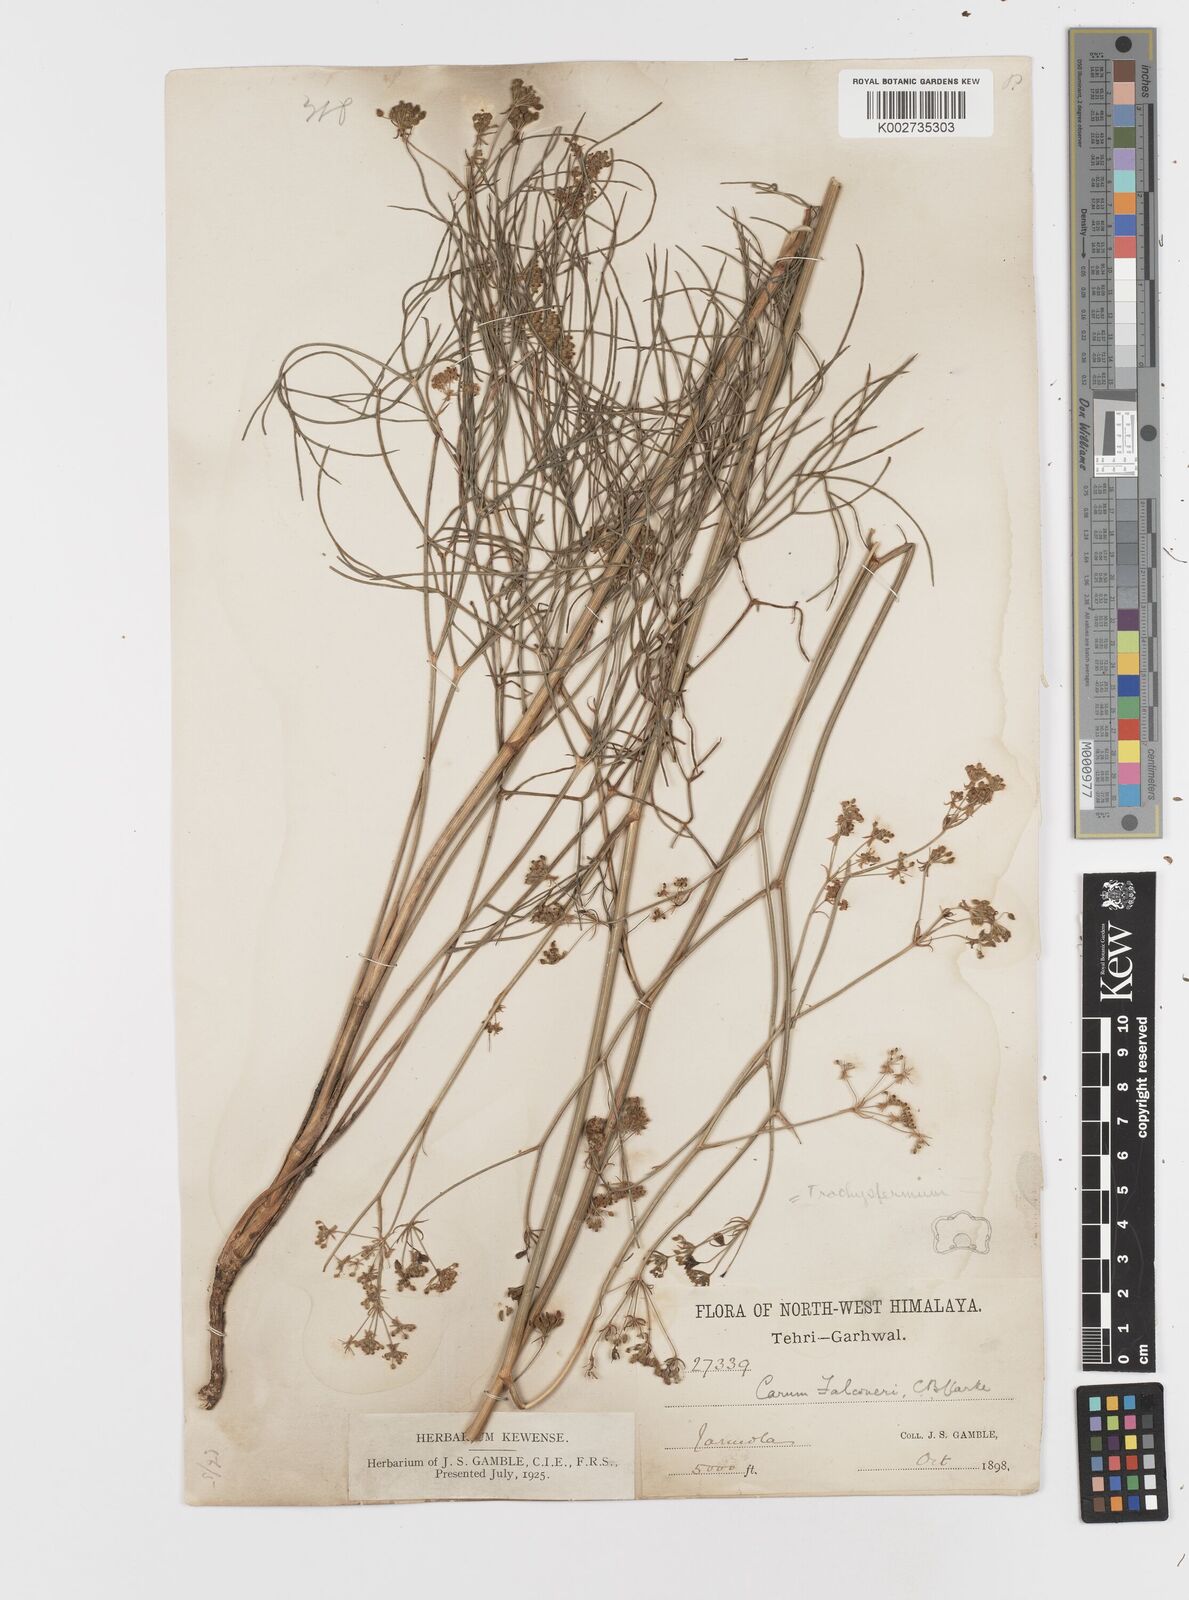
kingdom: Plantae
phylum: Tracheophyta
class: Magnoliopsida
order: Apiales
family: Apiaceae
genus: Trachyspermum
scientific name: Trachyspermum falconeri
